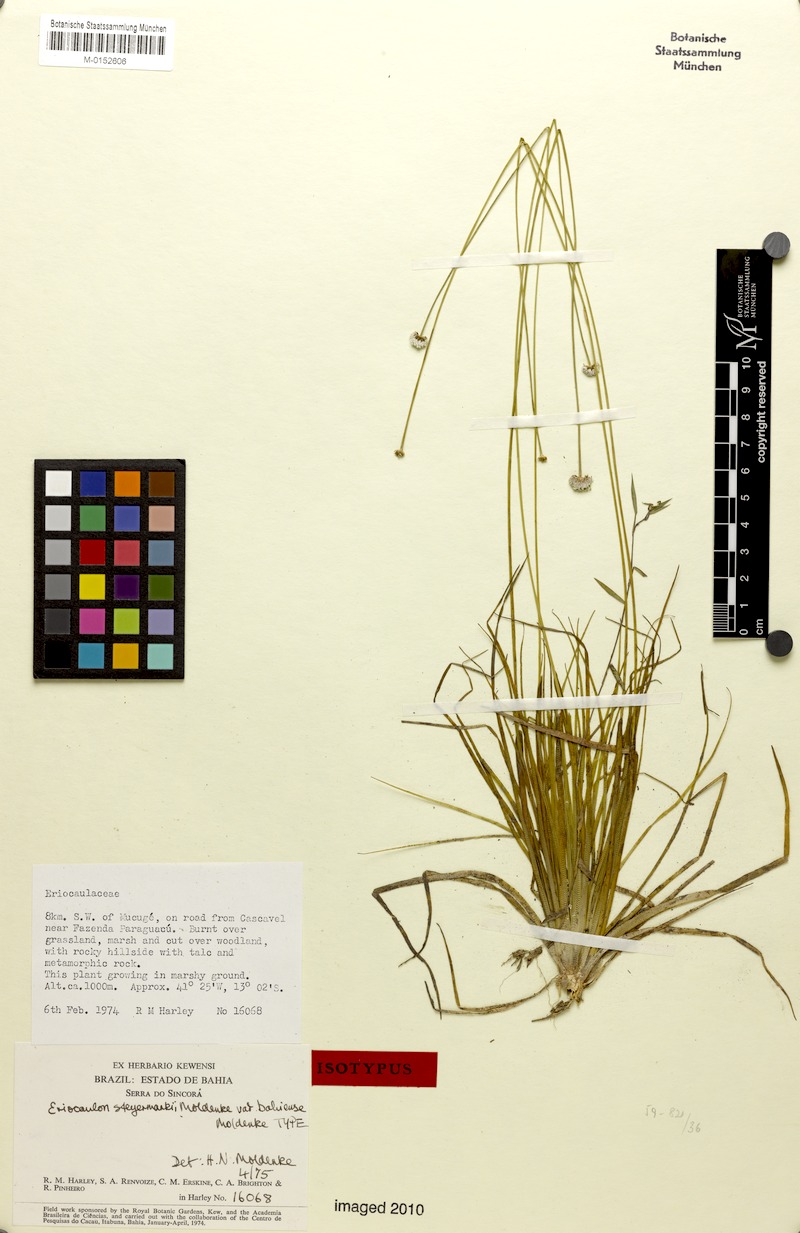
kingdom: Plantae
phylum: Tracheophyta
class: Liliopsida
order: Poales
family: Eriocaulaceae
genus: Eriocaulon
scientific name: Eriocaulon modestum
